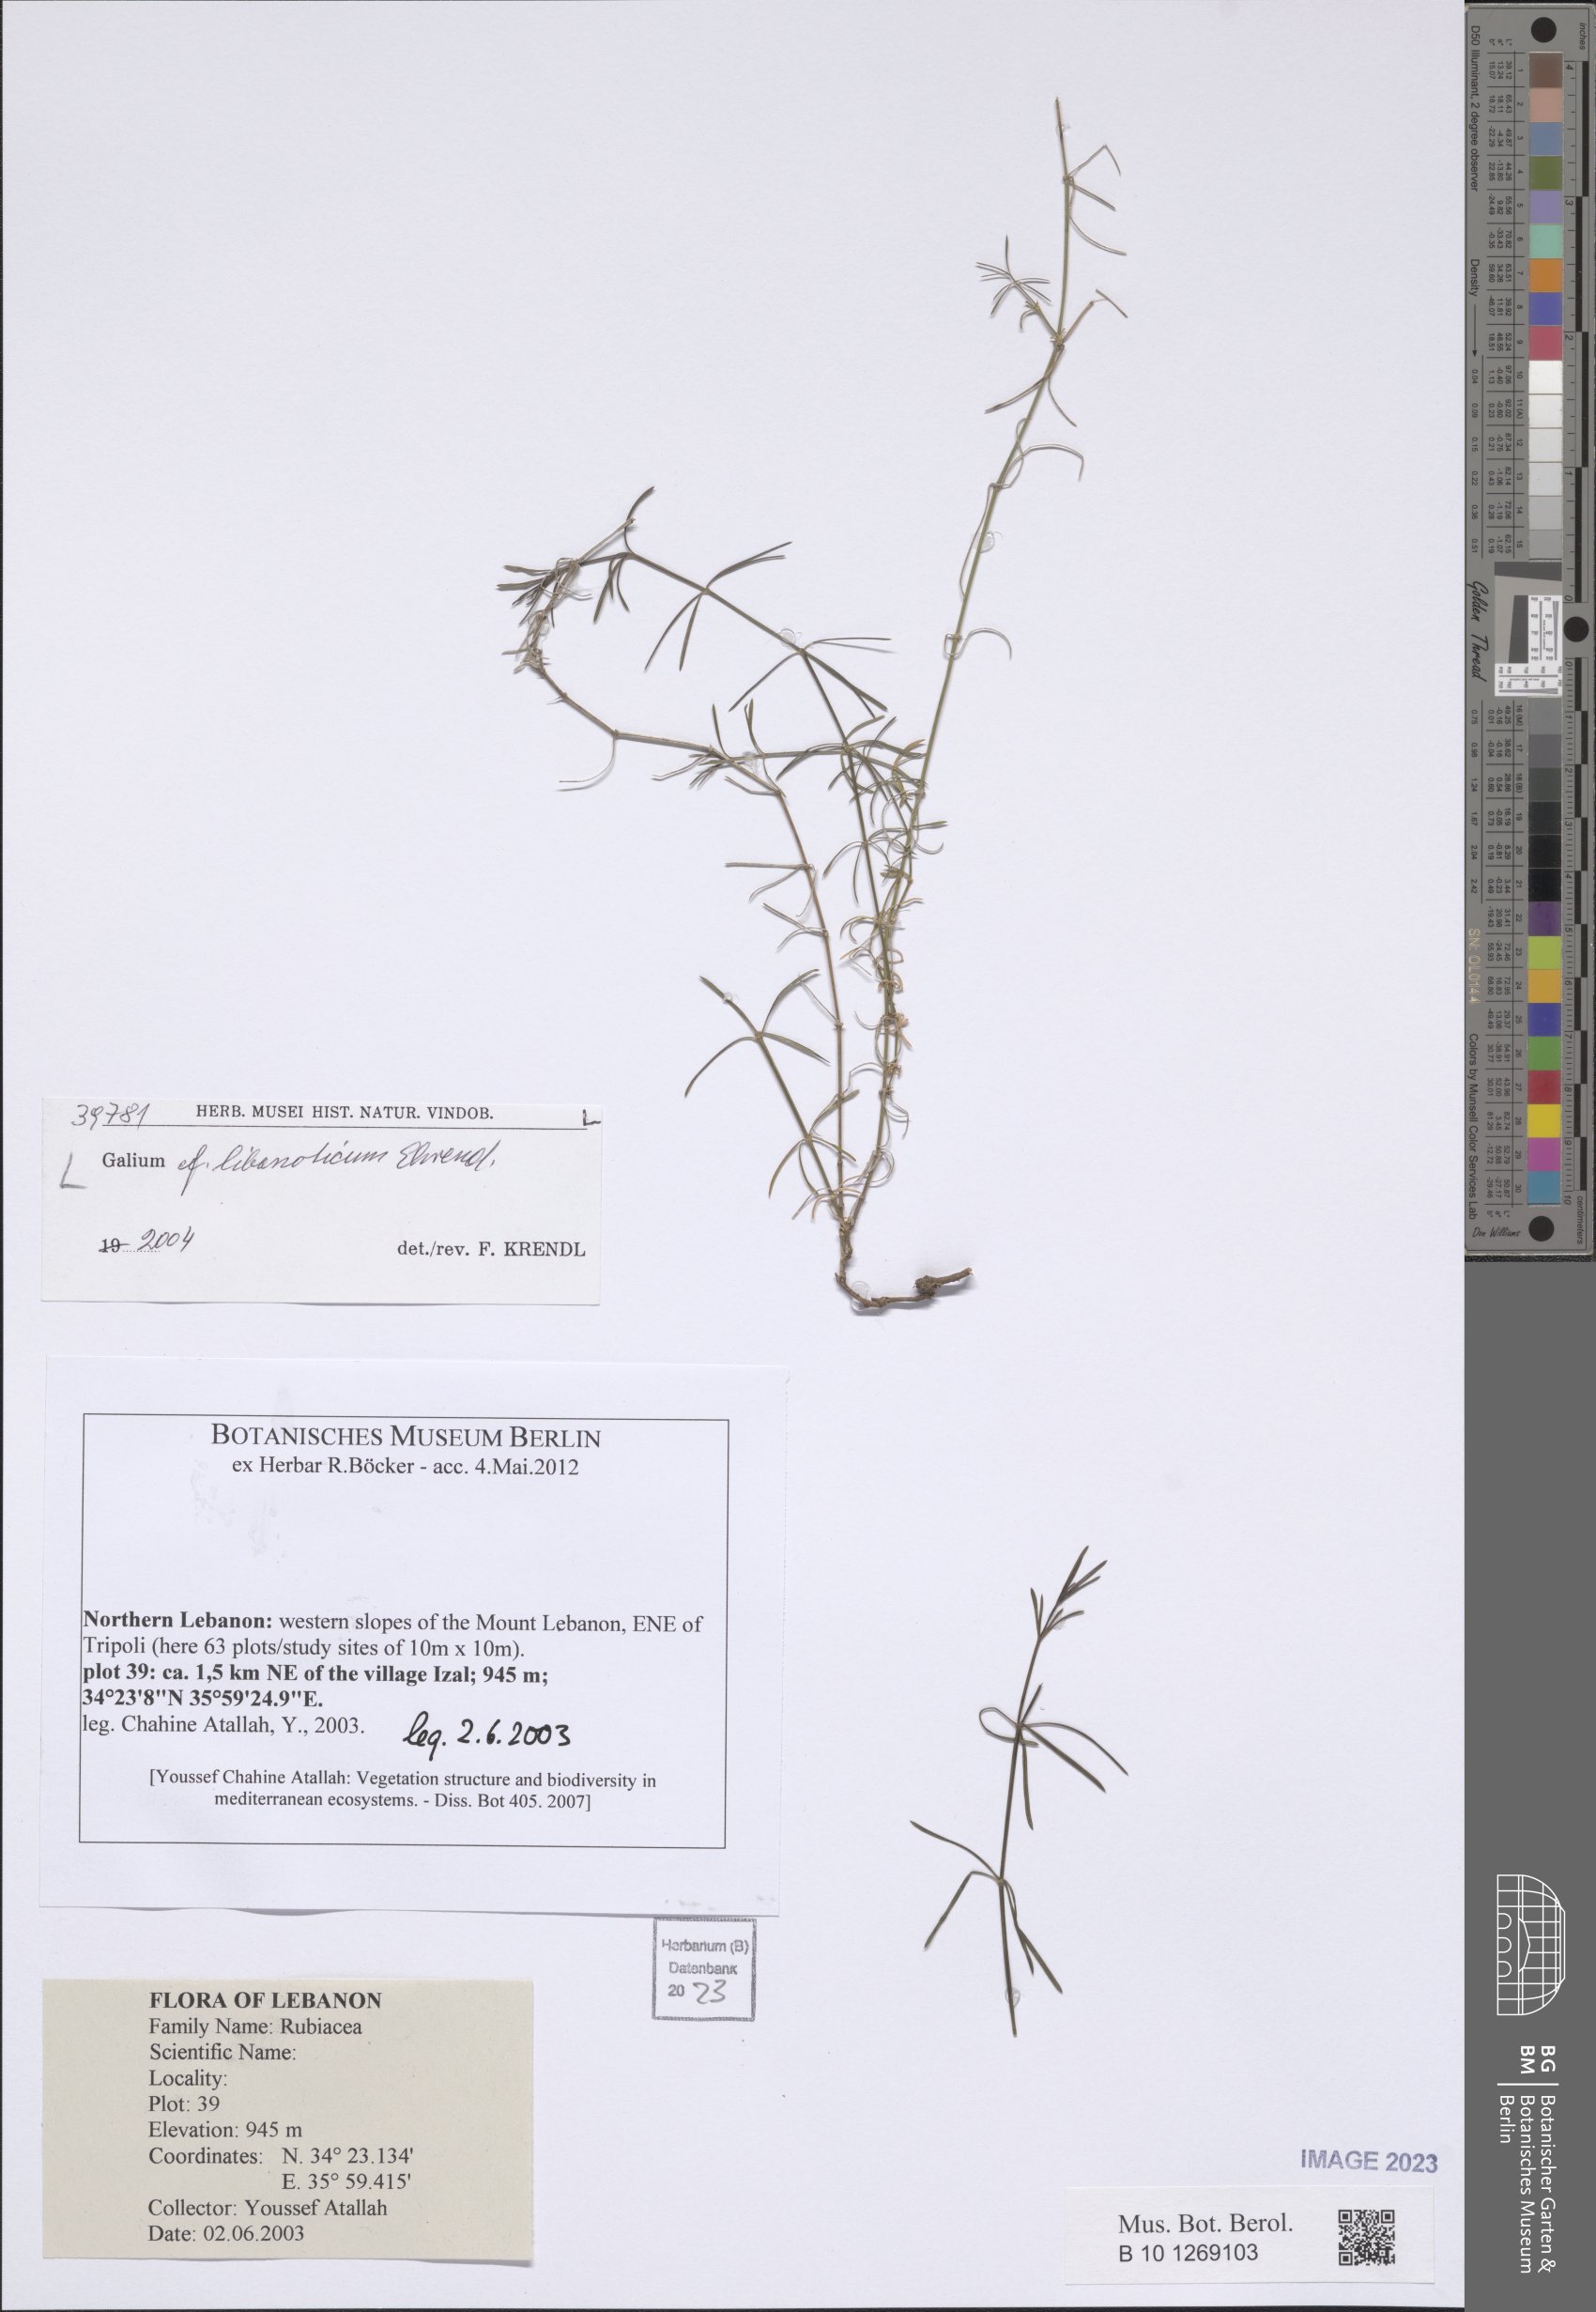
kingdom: Plantae
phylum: Tracheophyta
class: Magnoliopsida
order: Gentianales
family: Rubiaceae
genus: Galium
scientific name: Galium libanoticum
